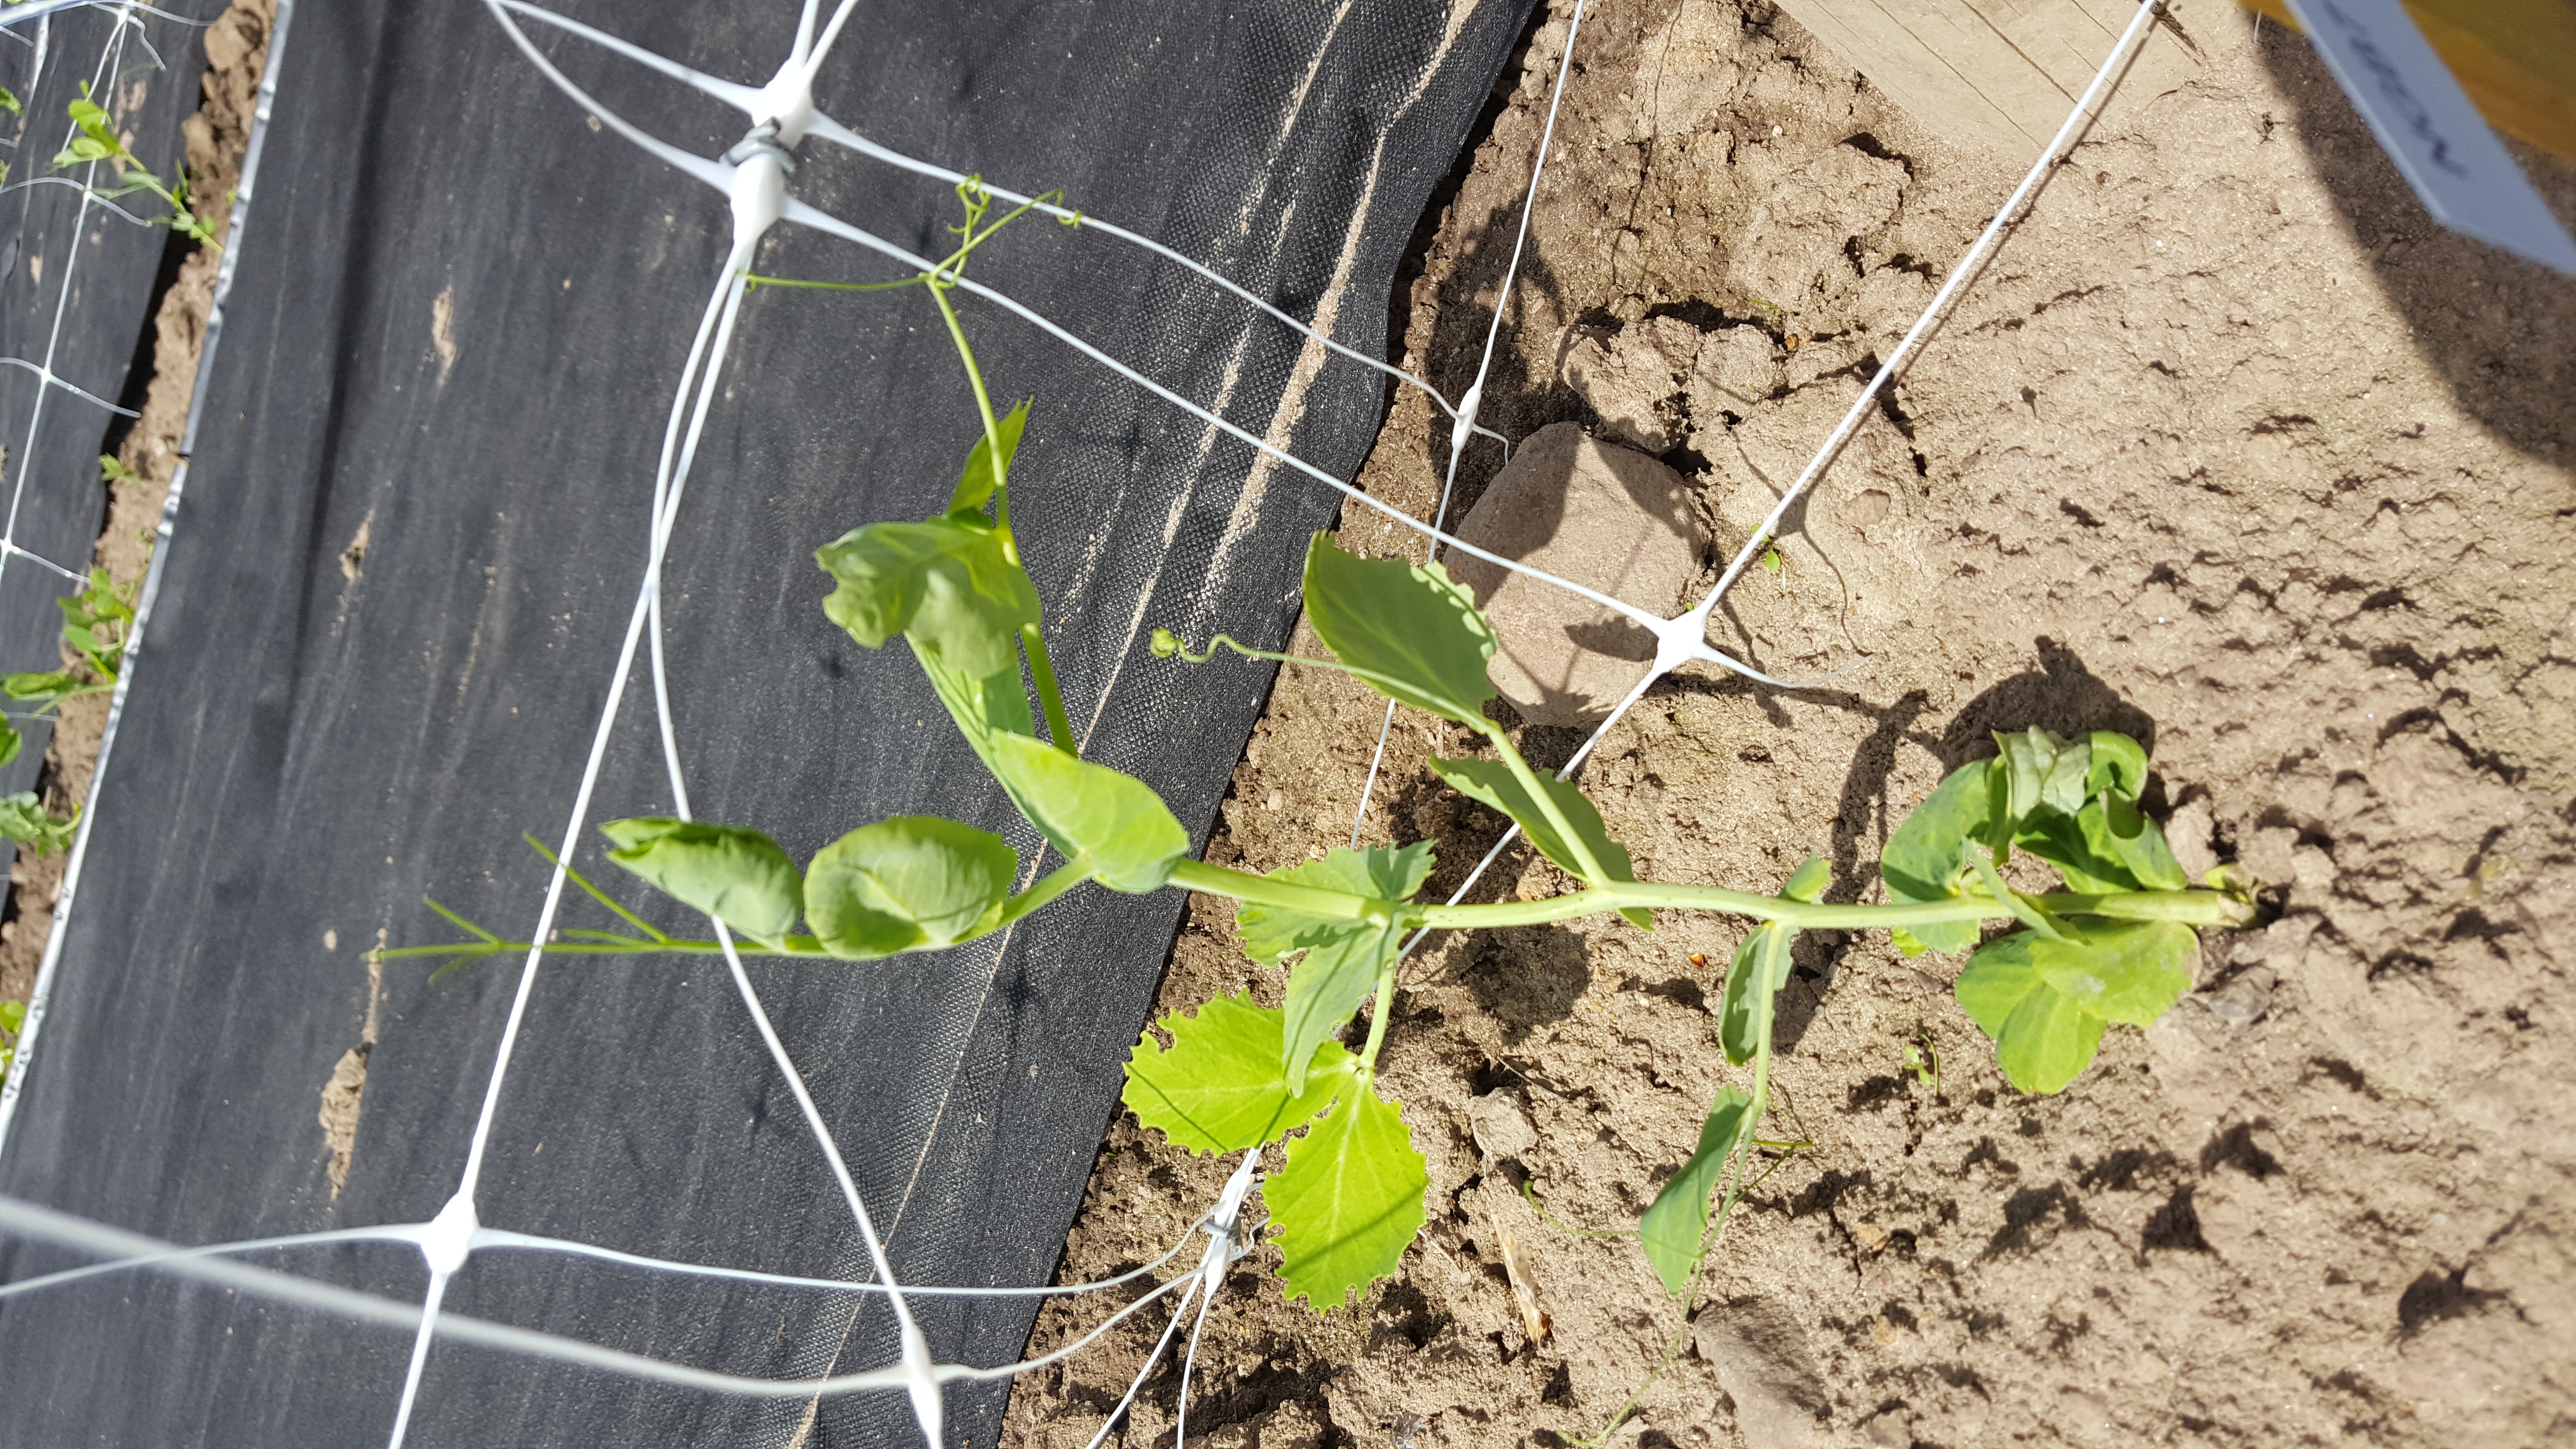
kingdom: Plantae
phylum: Tracheophyta
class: Magnoliopsida
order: Fabales
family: Fabaceae
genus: Lathyrus
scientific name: Lathyrus oleraceus
